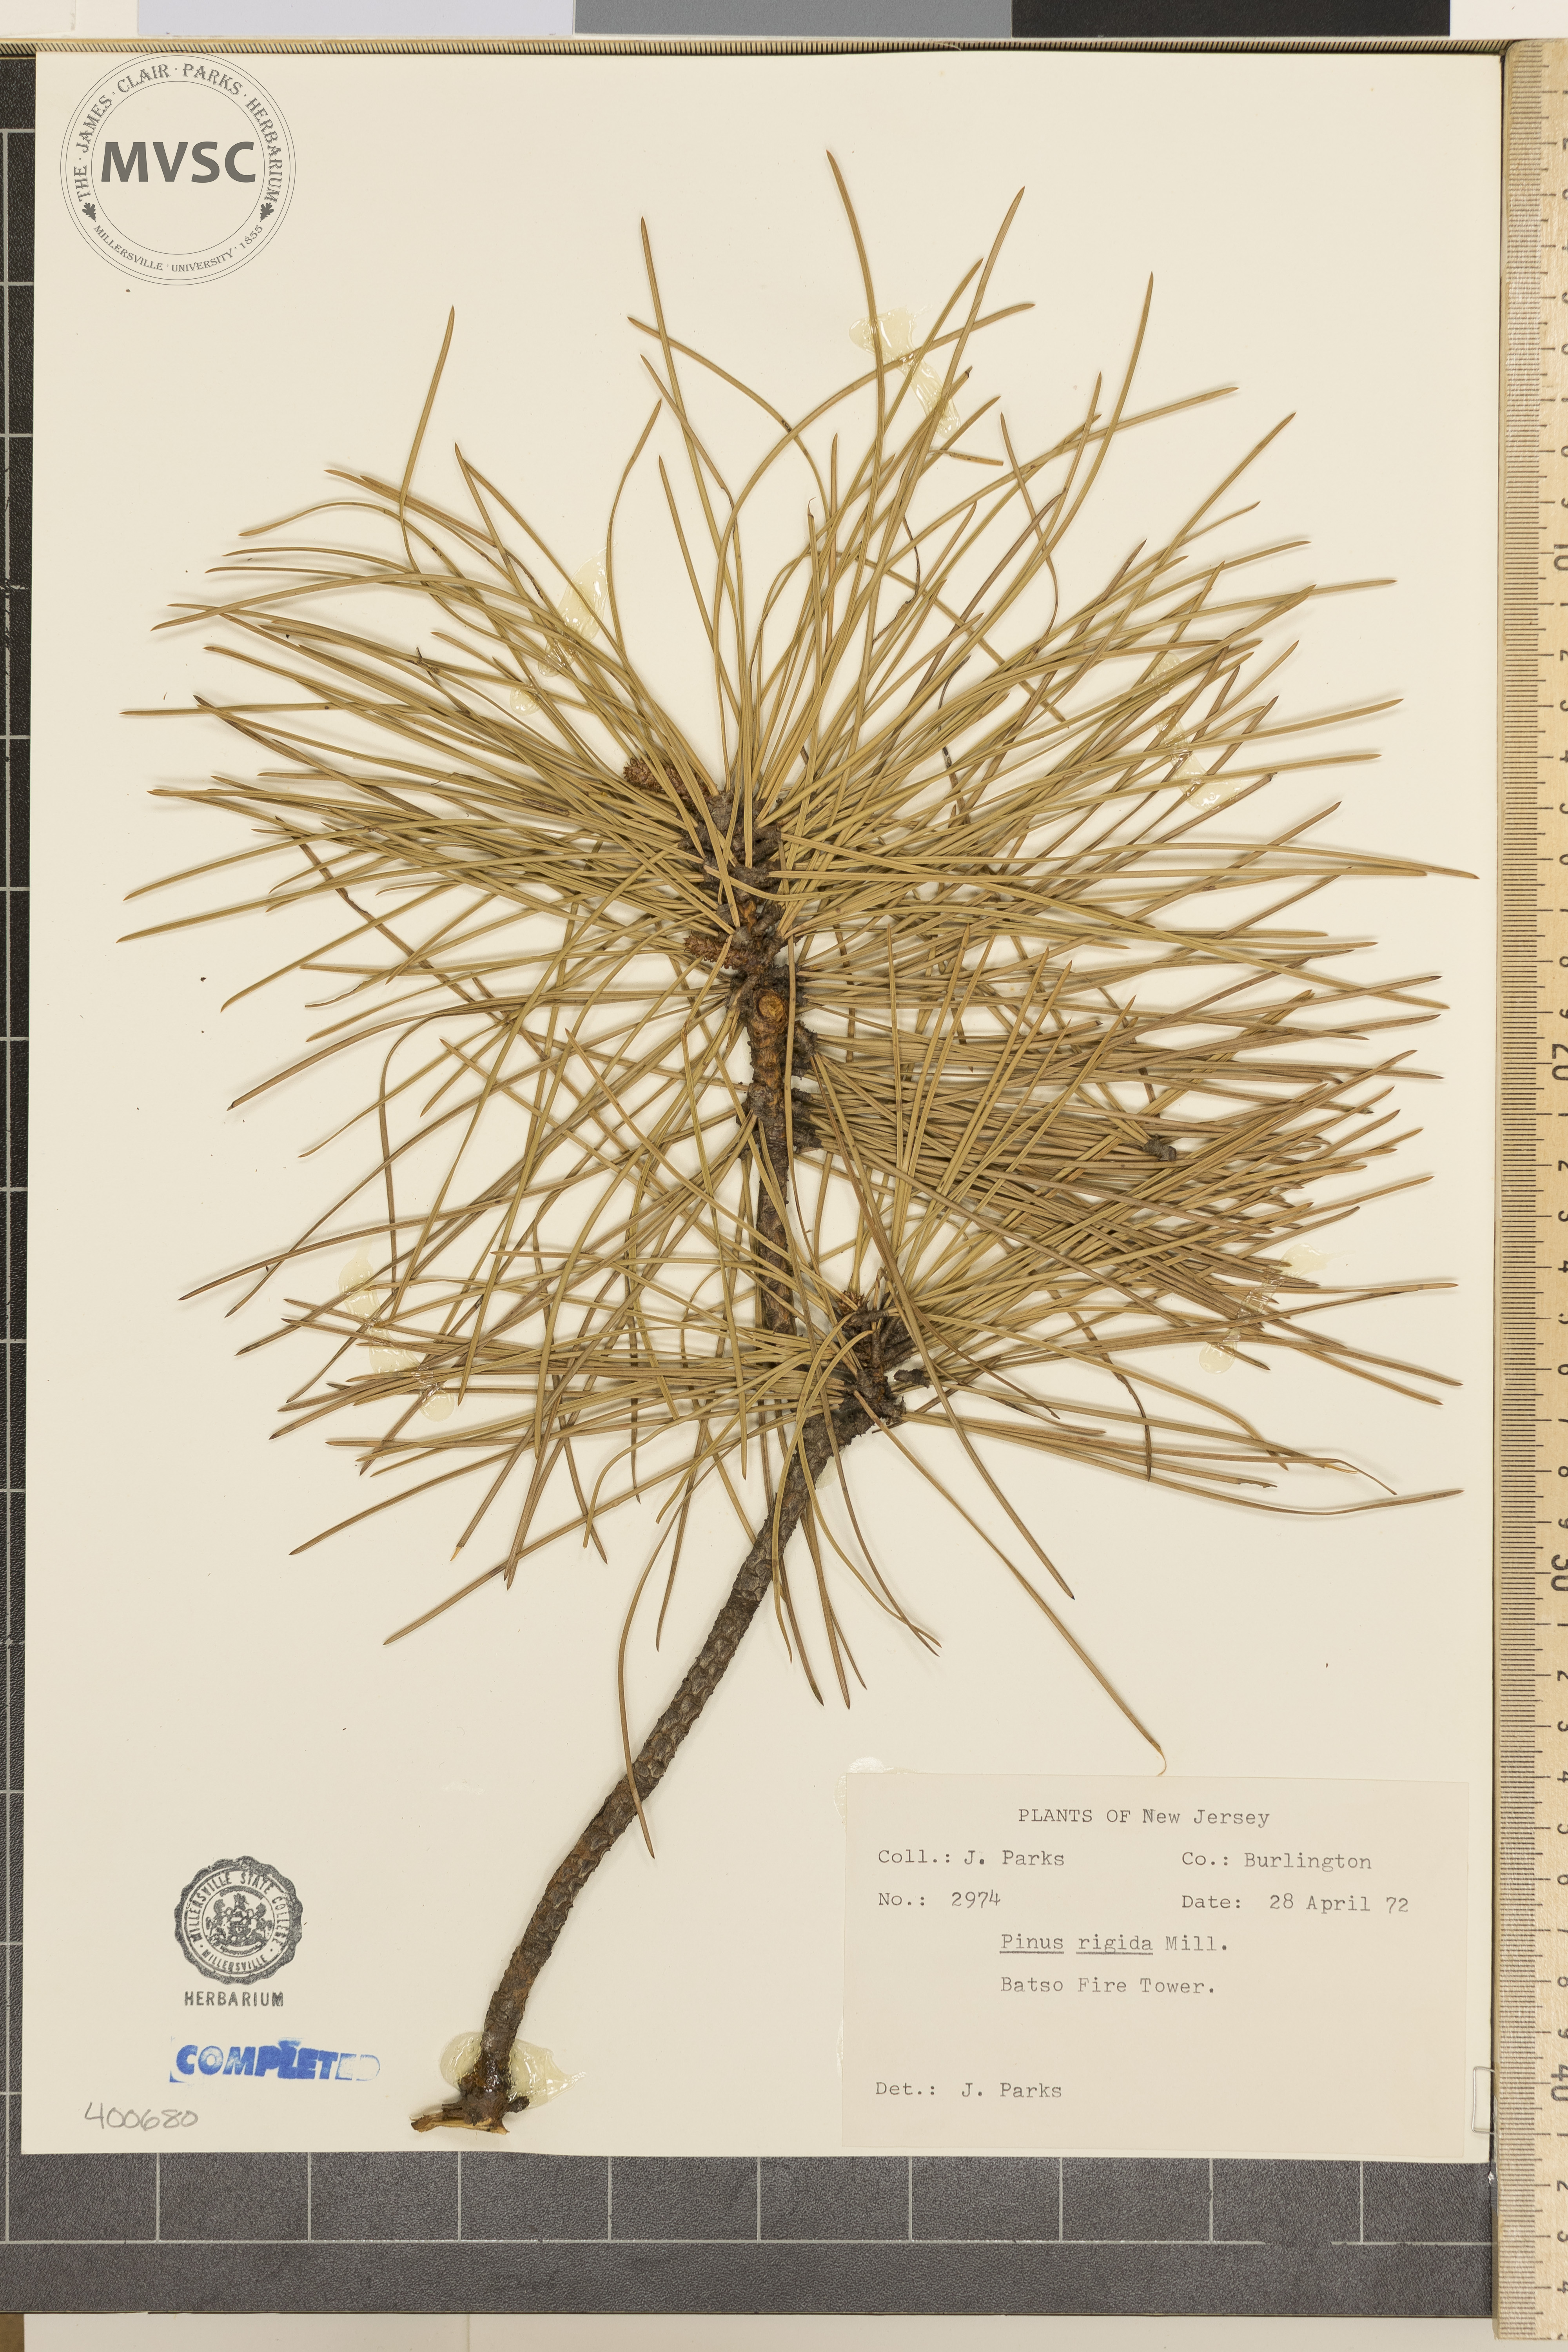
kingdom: Plantae
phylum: Tracheophyta
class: Pinopsida
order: Pinales
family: Pinaceae
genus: Pinus
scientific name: Pinus rigida
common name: pitch pine
